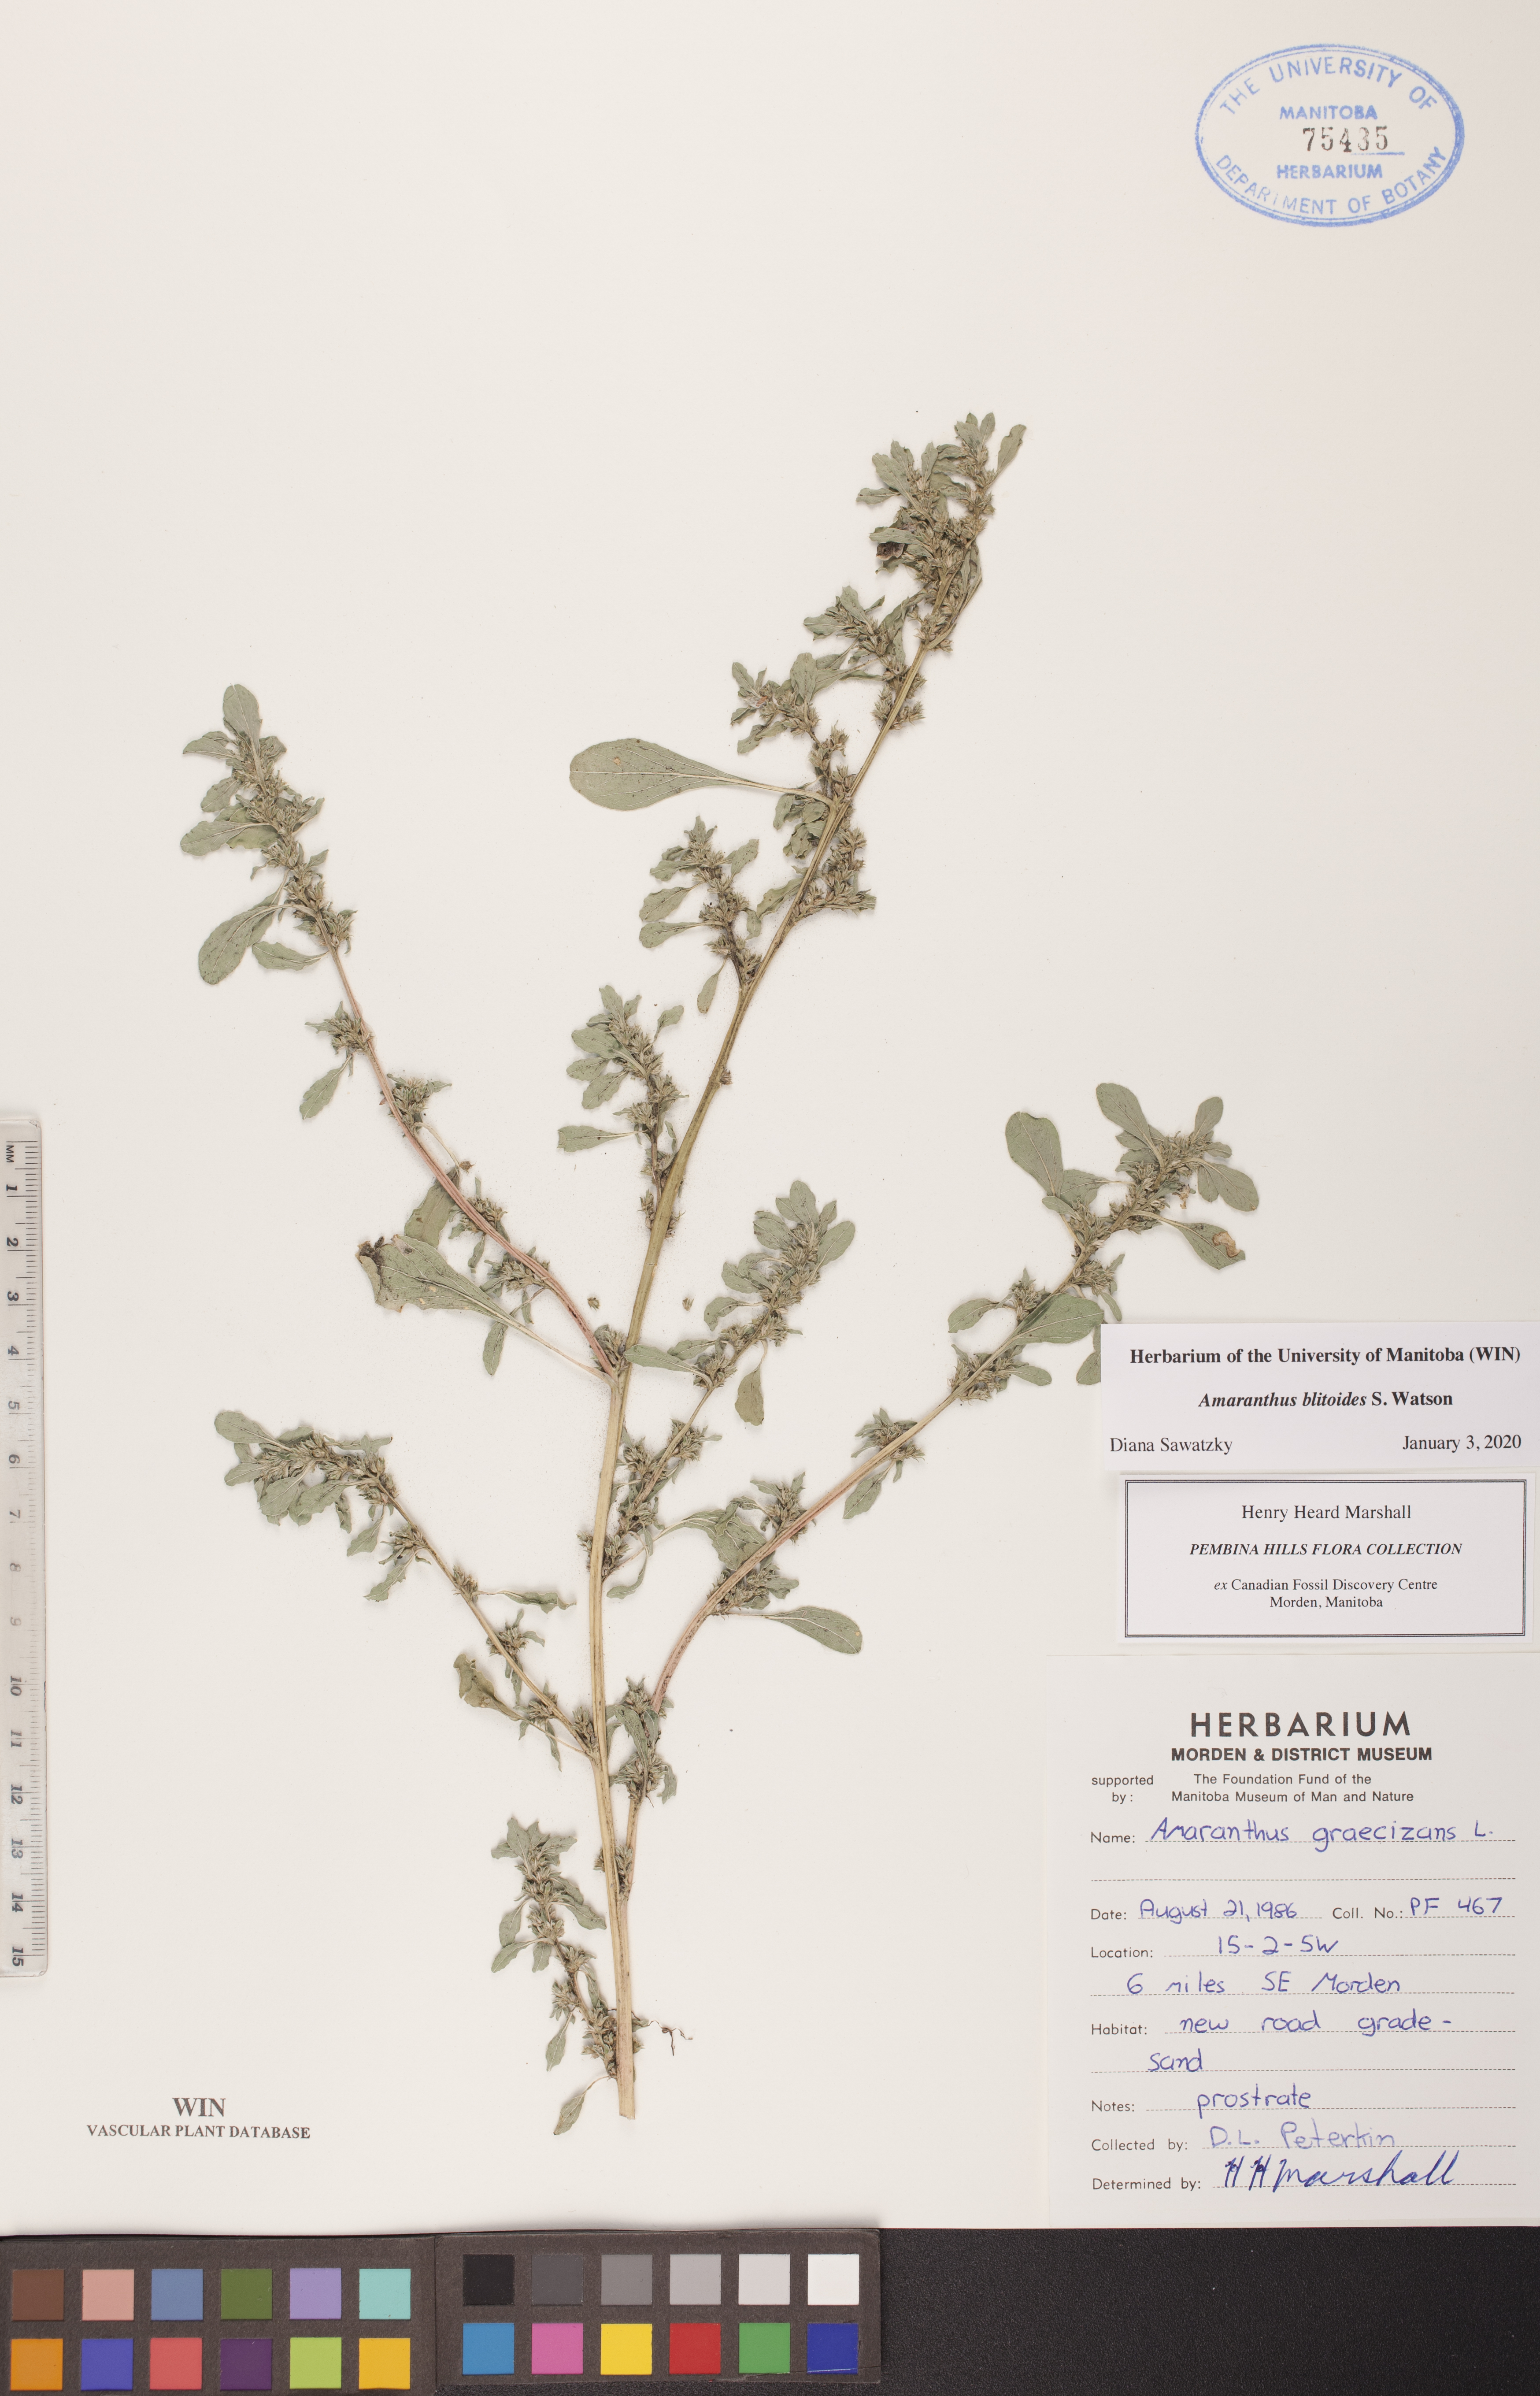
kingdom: Plantae
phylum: Tracheophyta
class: Magnoliopsida
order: Caryophyllales
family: Amaranthaceae
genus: Amaranthus
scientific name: Amaranthus graecizans
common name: Mediterranean amaranth
